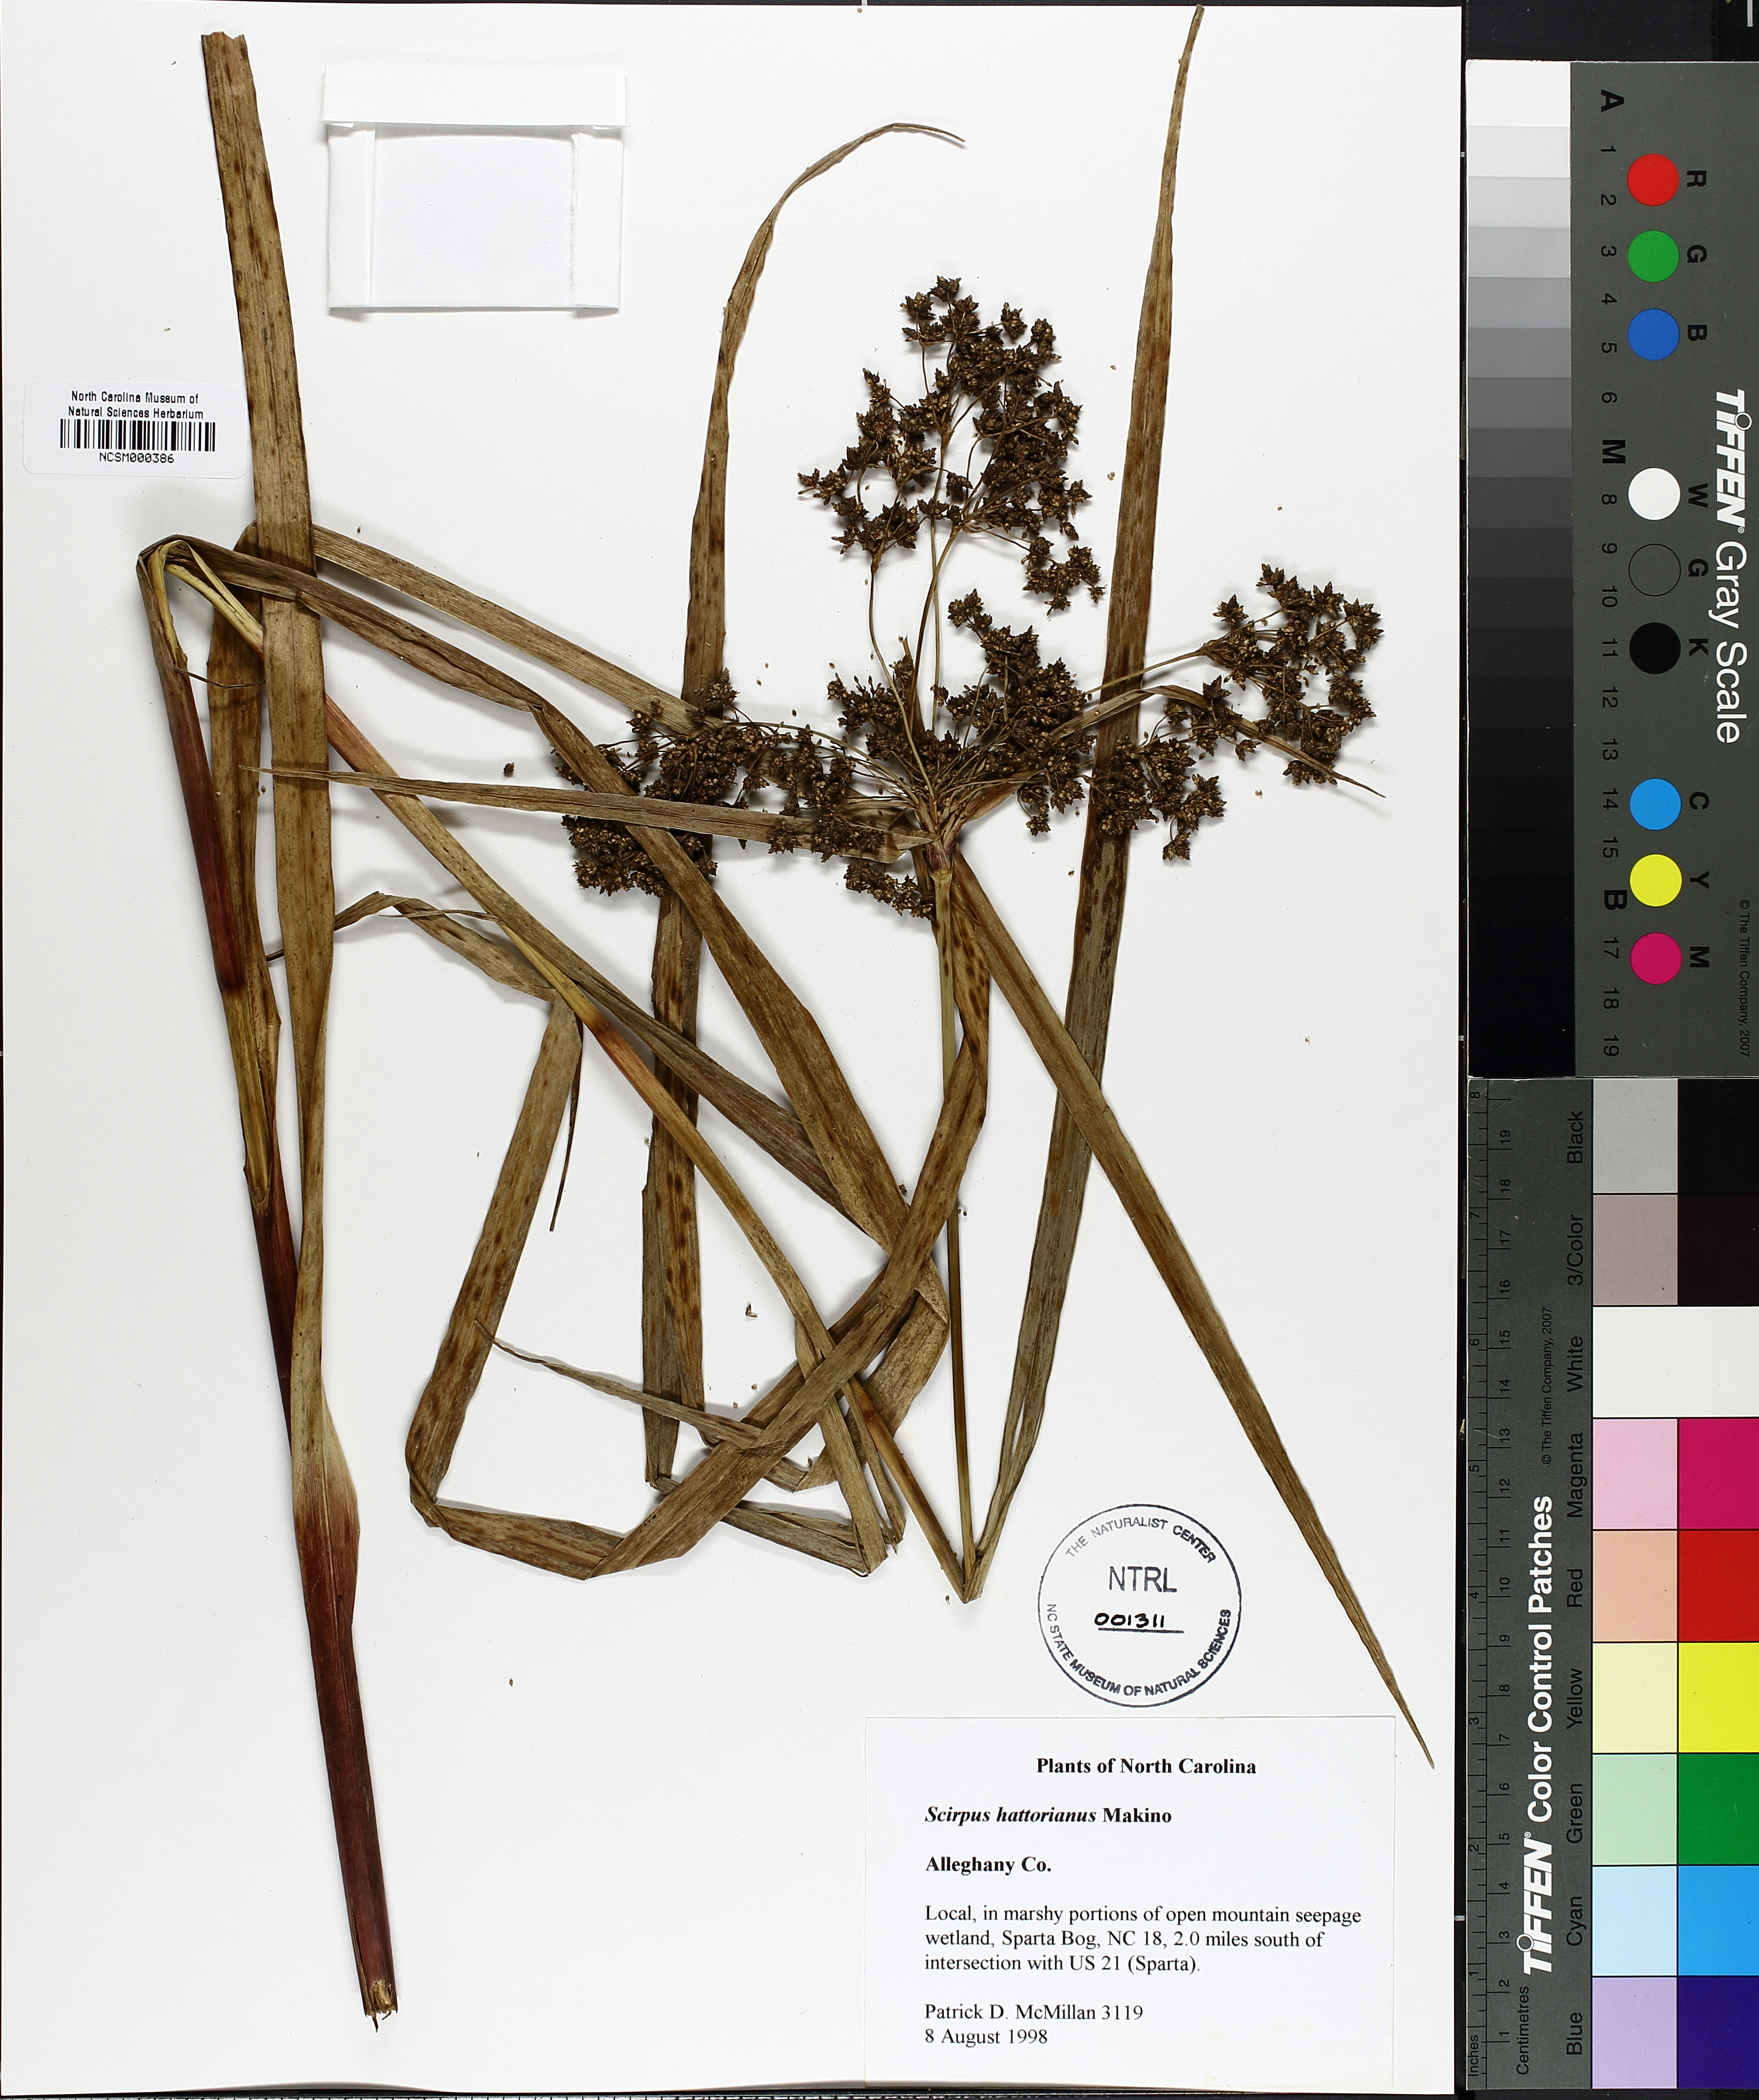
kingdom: Plantae
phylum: Tracheophyta
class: Liliopsida
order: Poales
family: Cyperaceae
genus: Scirpus
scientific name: Scirpus hattorianus
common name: Early dark-green bulrush
